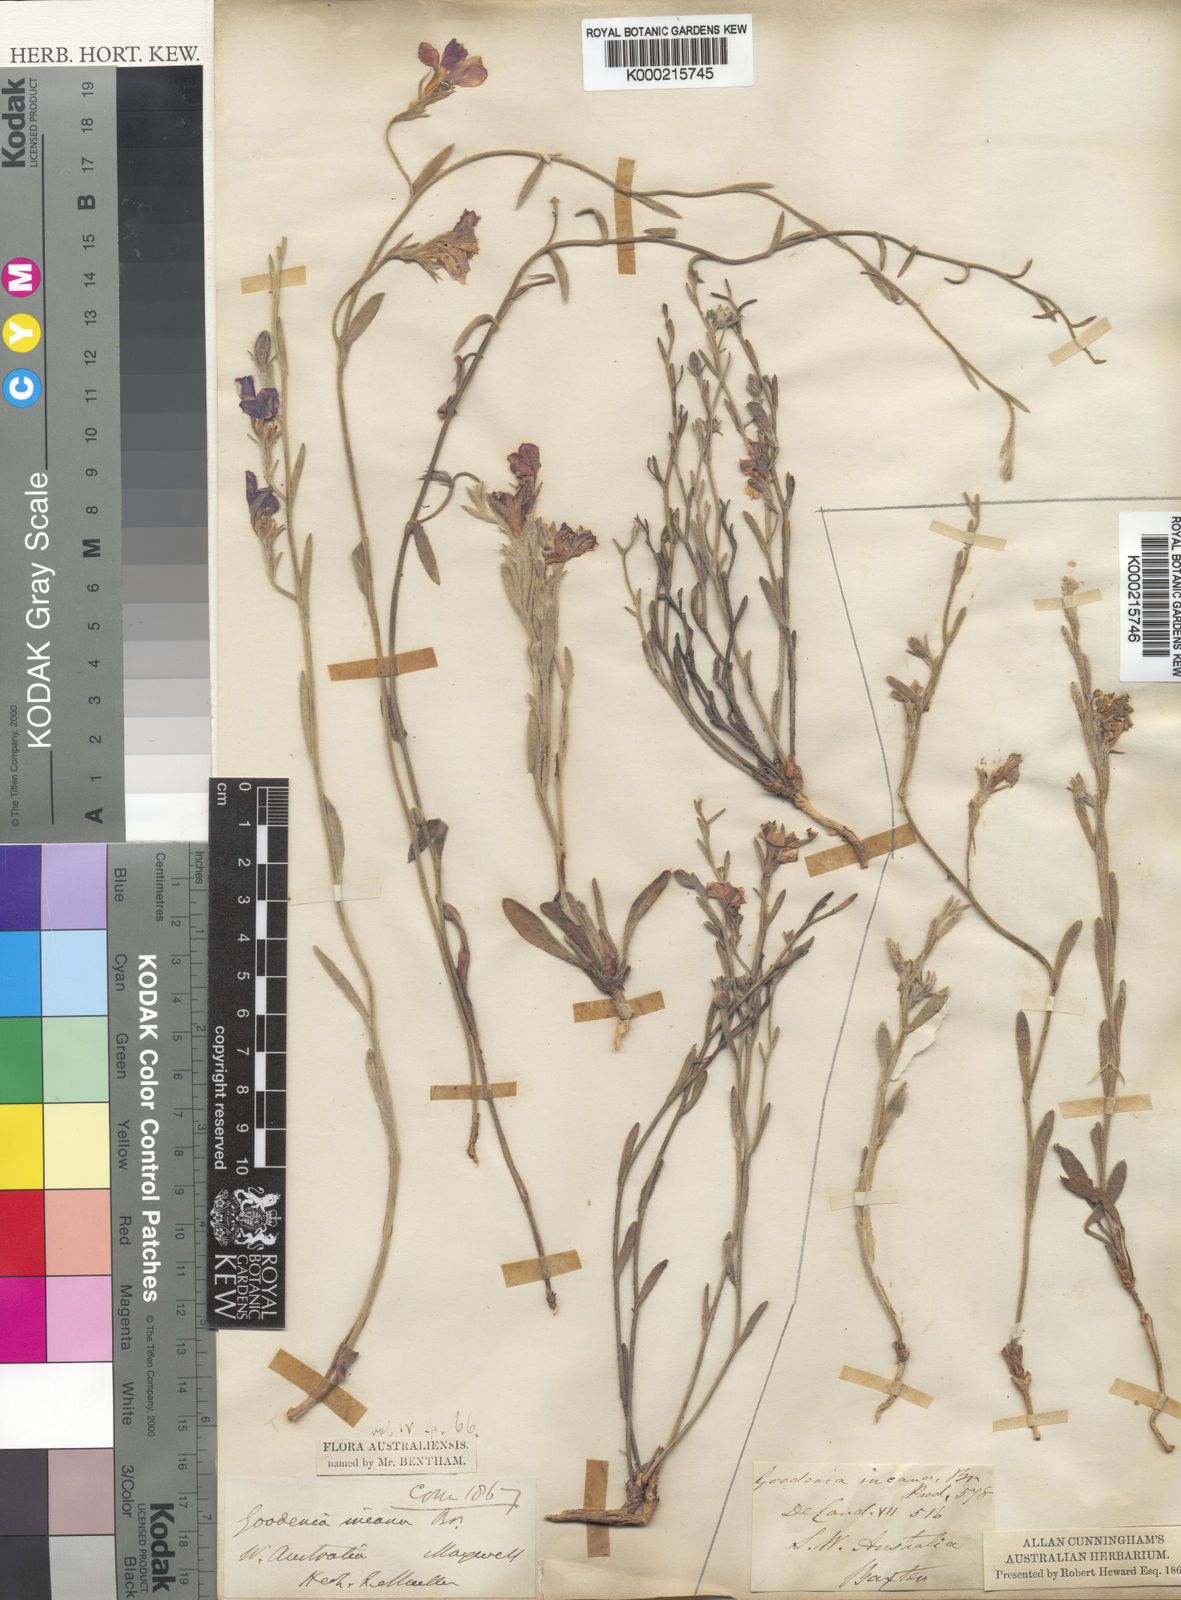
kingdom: Plantae
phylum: Tracheophyta
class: Magnoliopsida
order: Asterales
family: Goodeniaceae
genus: Goodenia
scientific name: Goodenia incana
